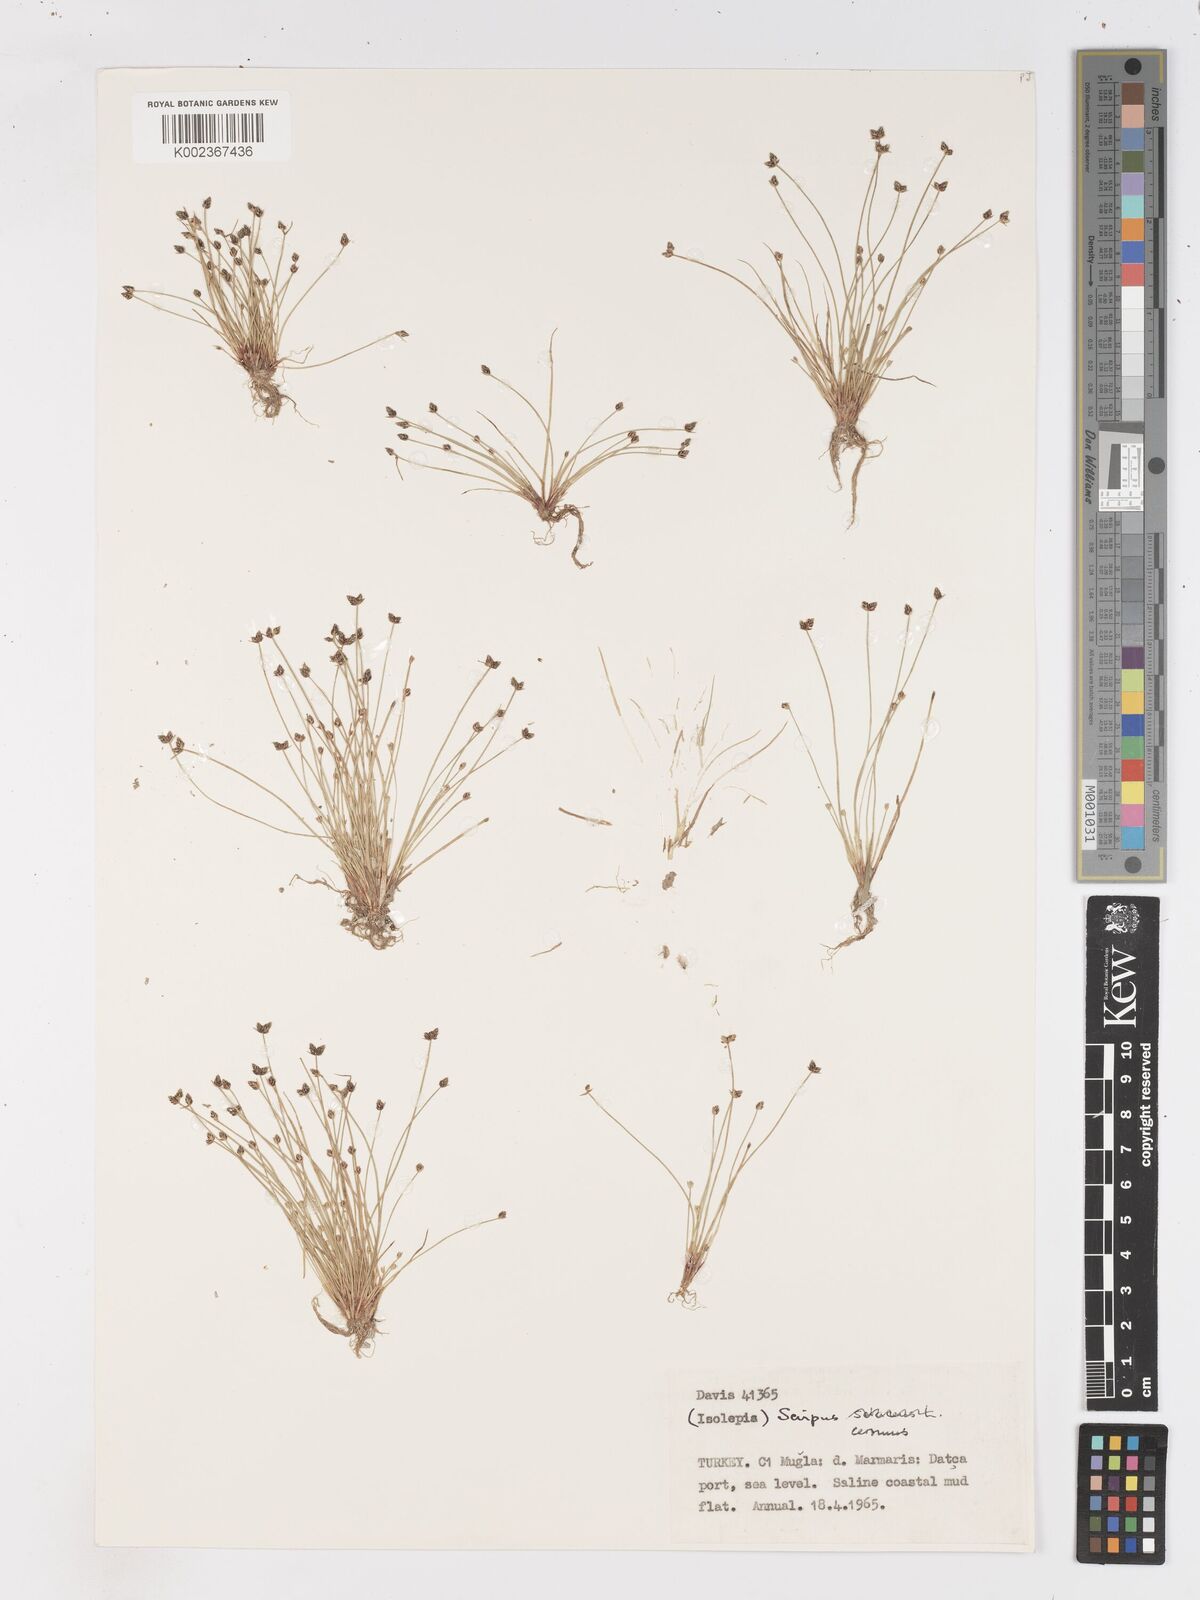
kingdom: Plantae
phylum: Tracheophyta
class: Liliopsida
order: Poales
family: Cyperaceae
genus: Isolepis
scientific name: Isolepis cernua
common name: Slender club-rush
